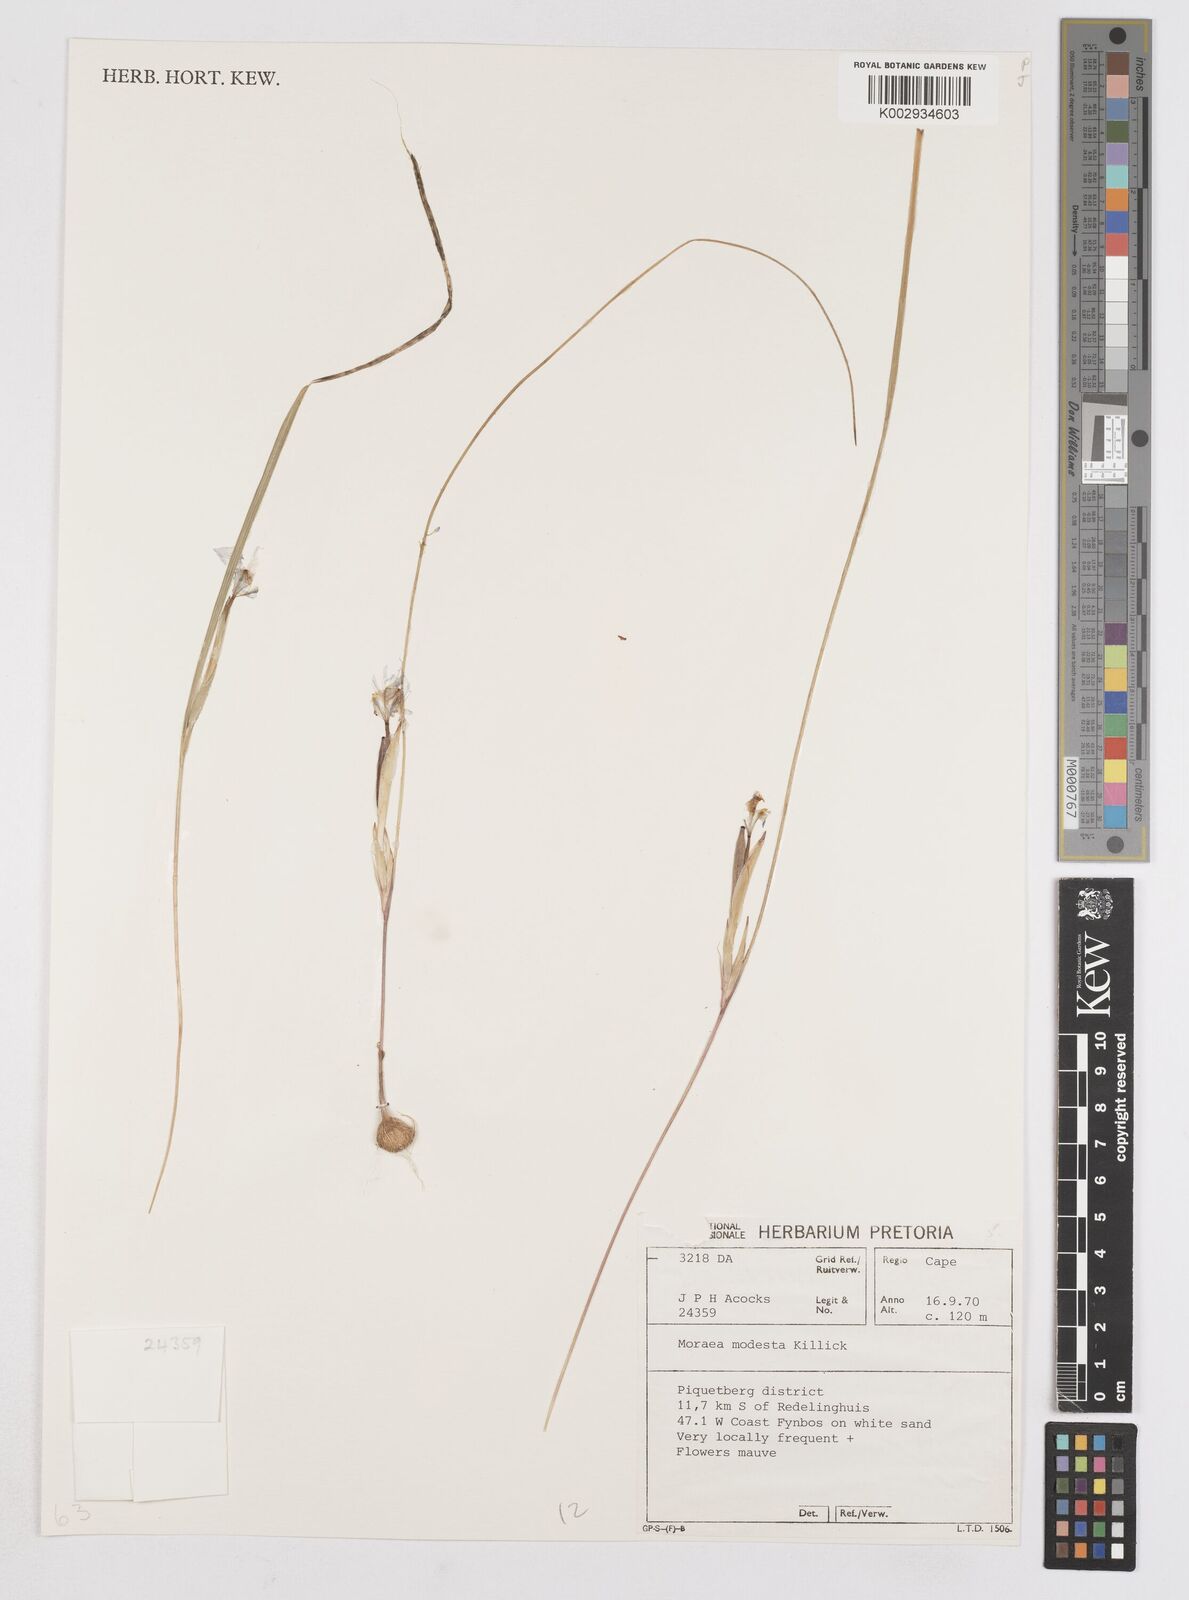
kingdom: Plantae
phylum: Tracheophyta
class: Liliopsida
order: Asparagales
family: Iridaceae
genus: Moraea
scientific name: Moraea modesta
